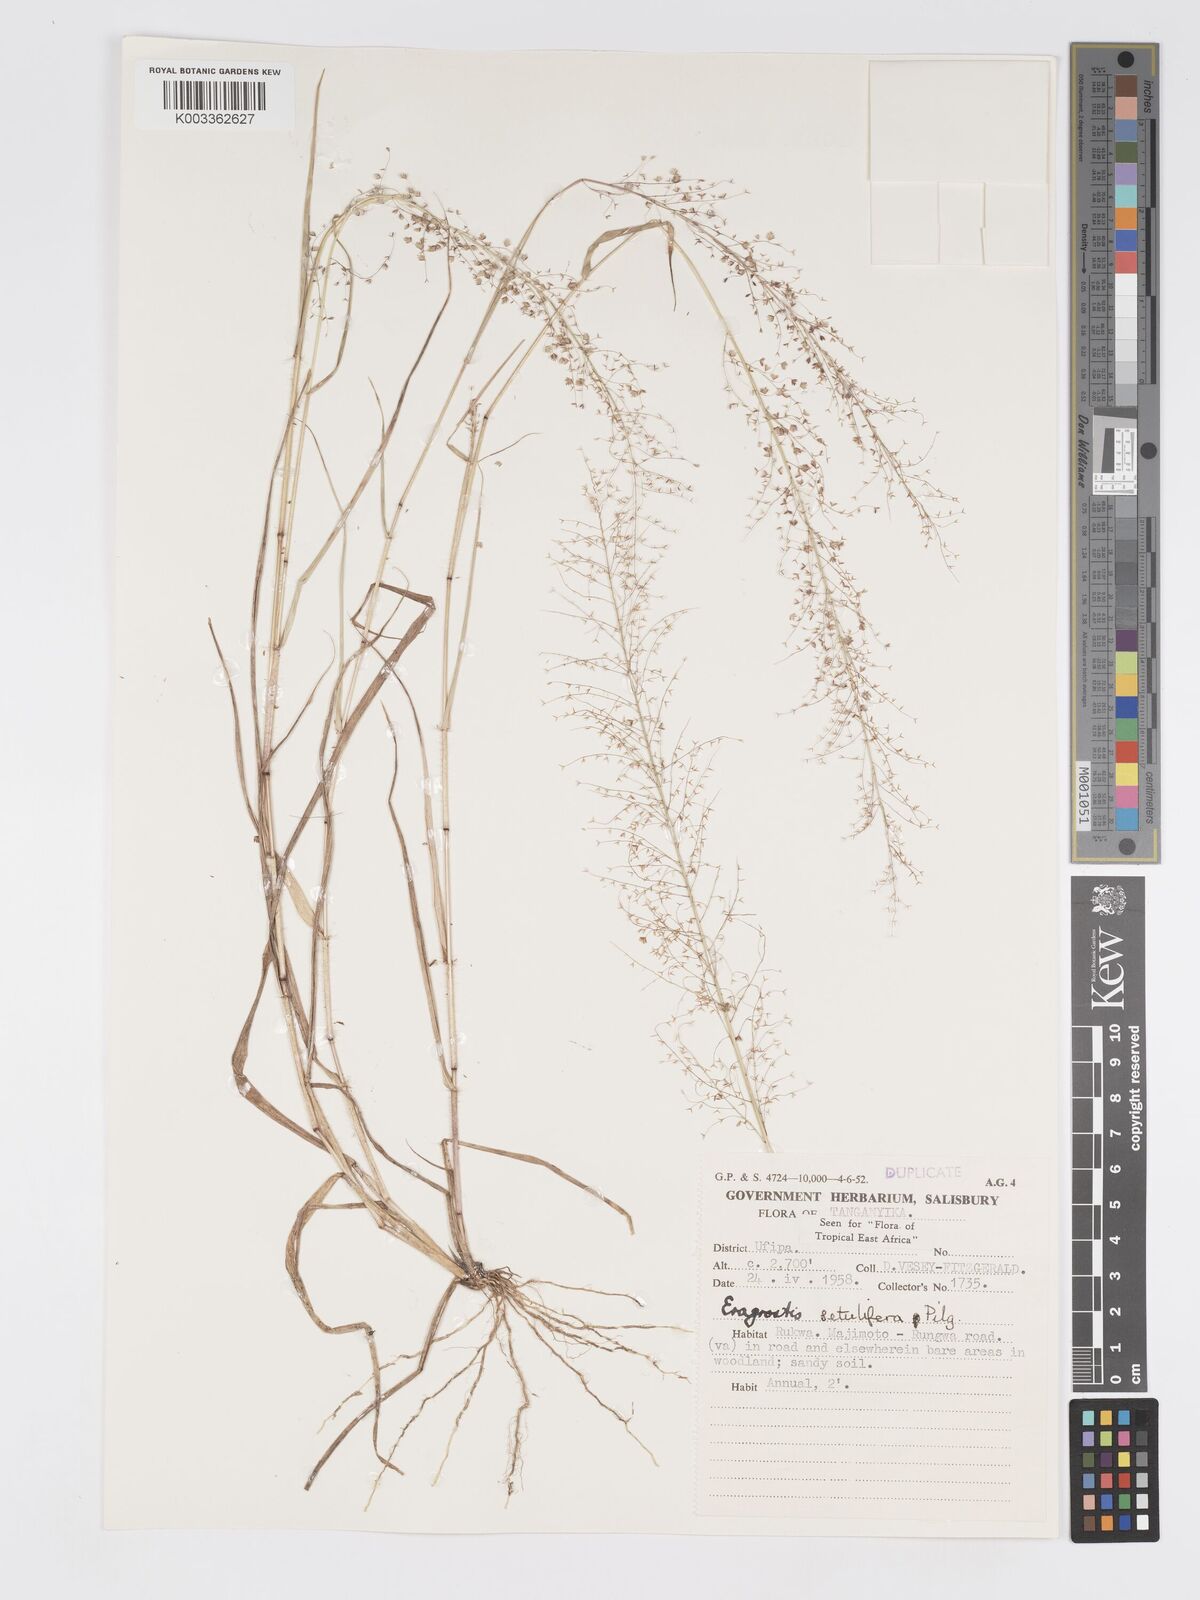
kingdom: Plantae
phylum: Tracheophyta
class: Liliopsida
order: Poales
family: Poaceae
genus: Eragrostis
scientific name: Eragrostis setulifera
